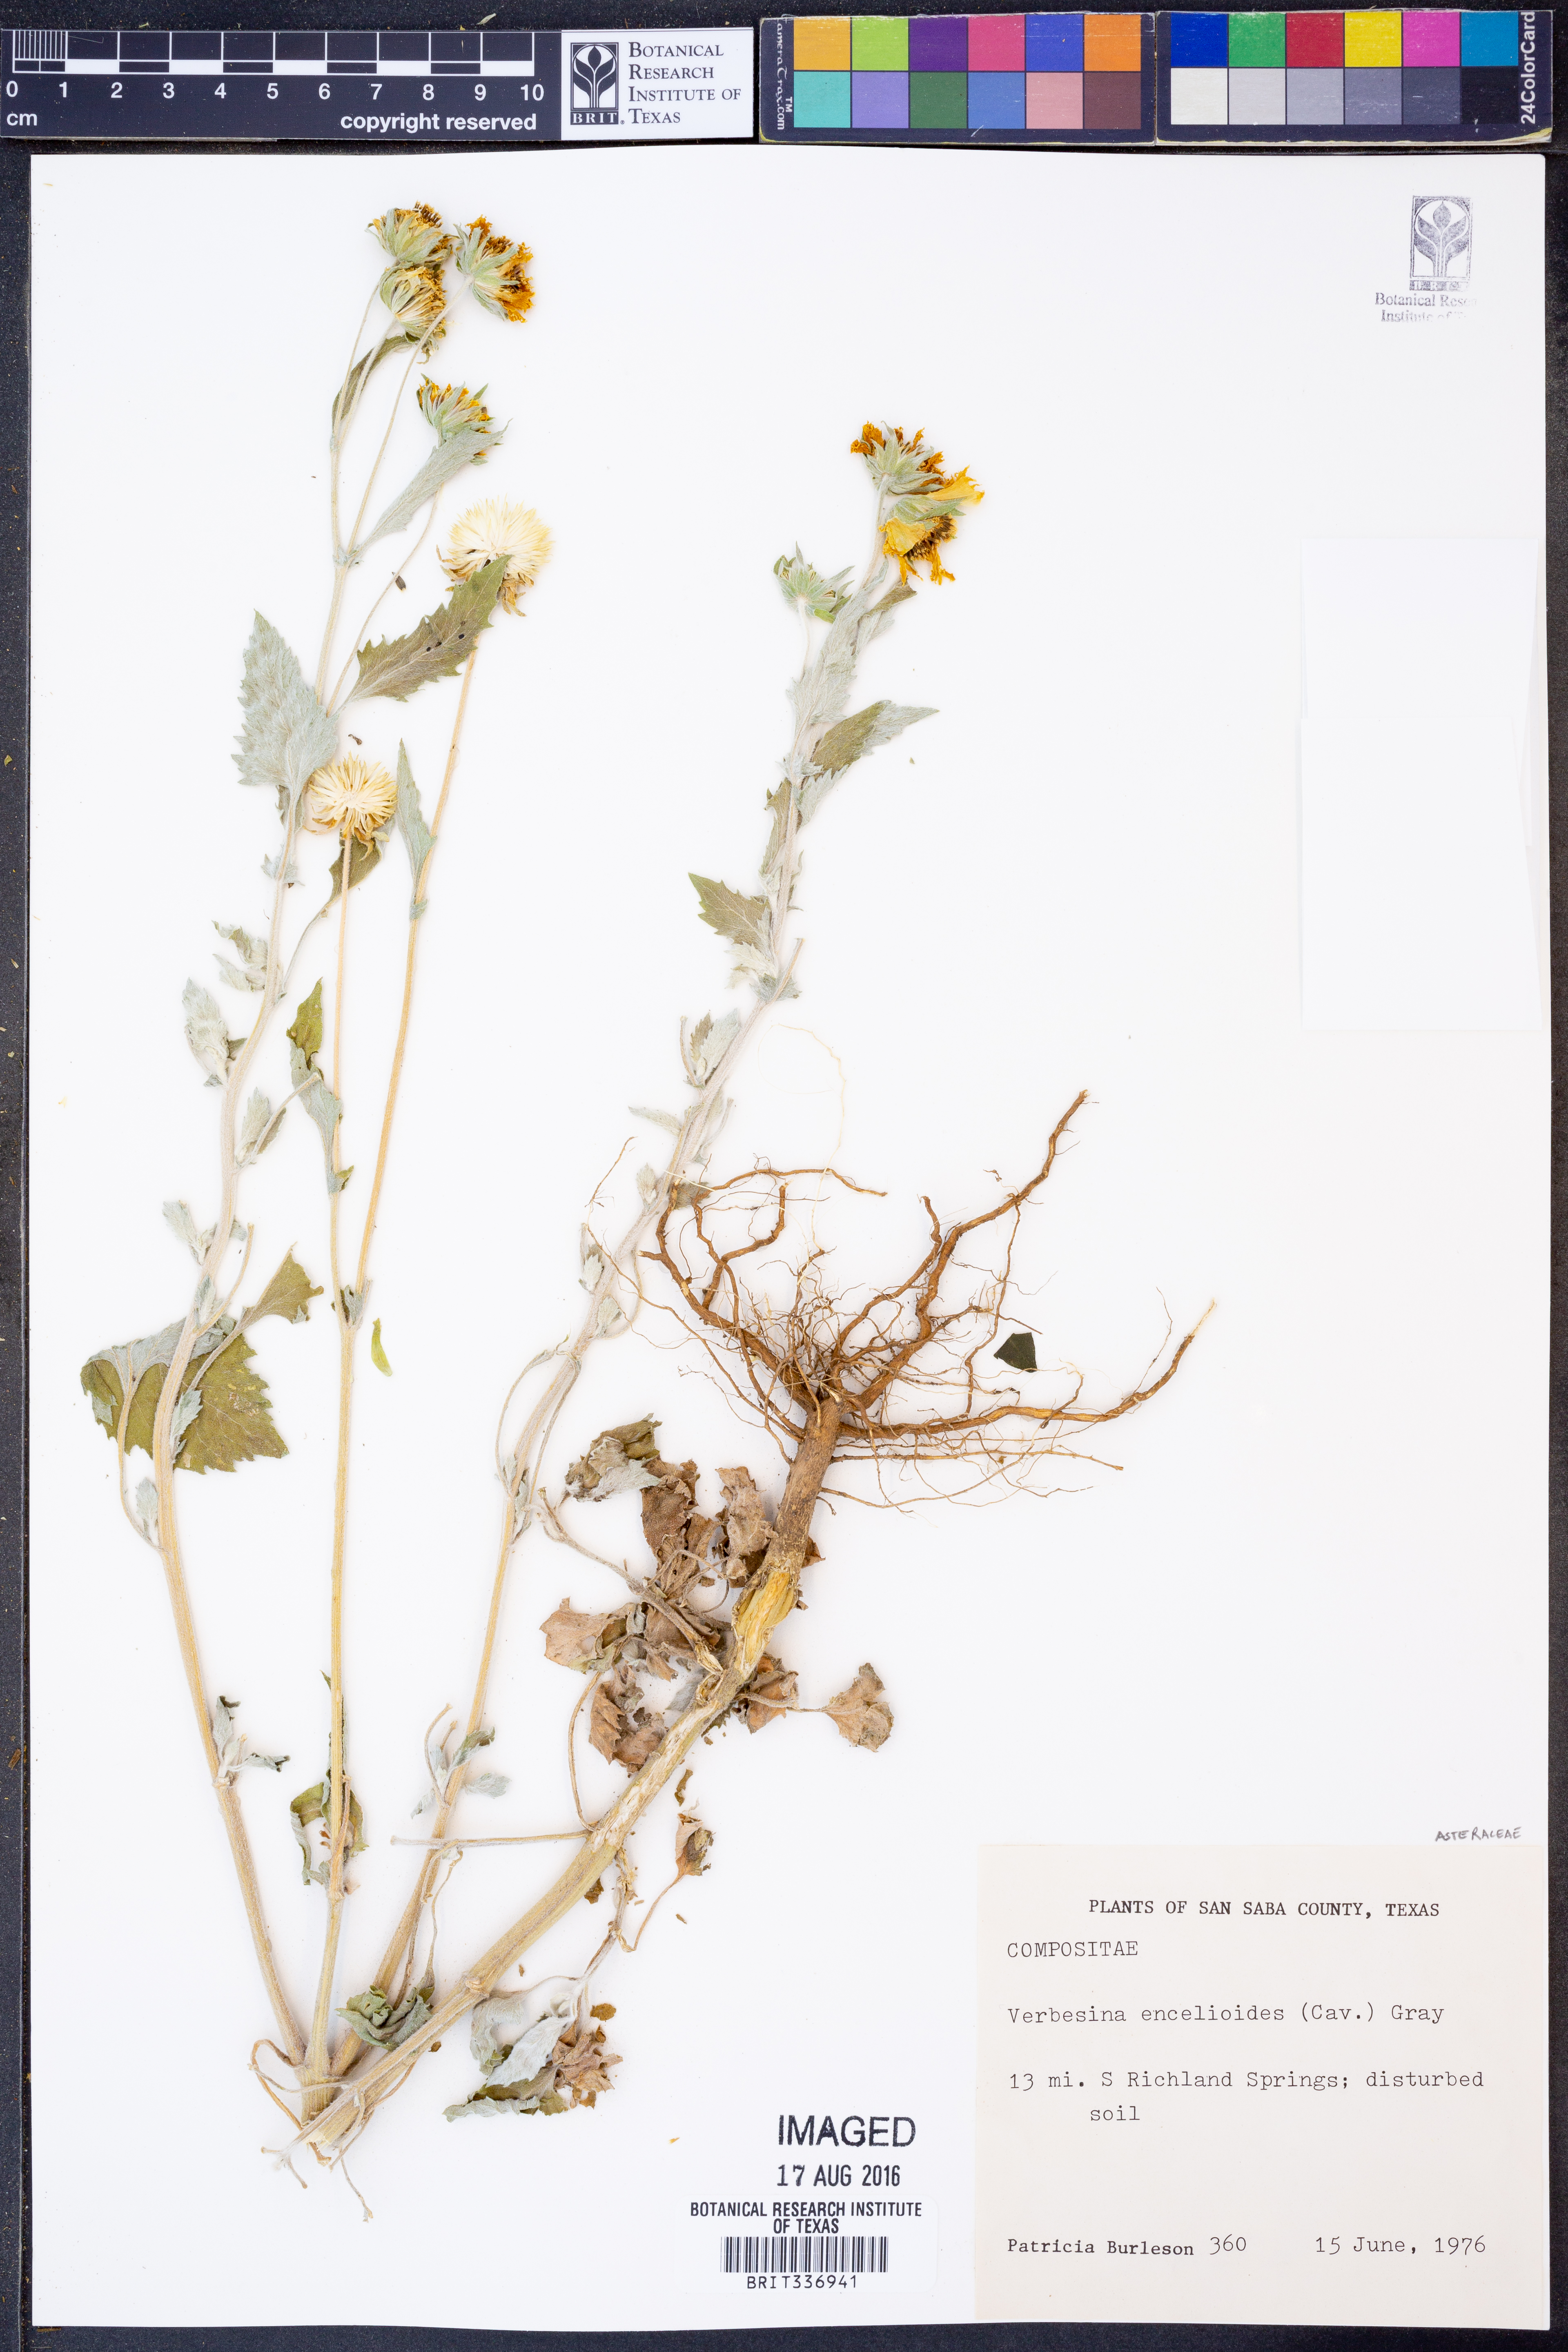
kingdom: Plantae
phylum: Tracheophyta
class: Magnoliopsida
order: Asterales
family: Asteraceae
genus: Verbesina
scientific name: Verbesina encelioides
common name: Golden crownbeard
